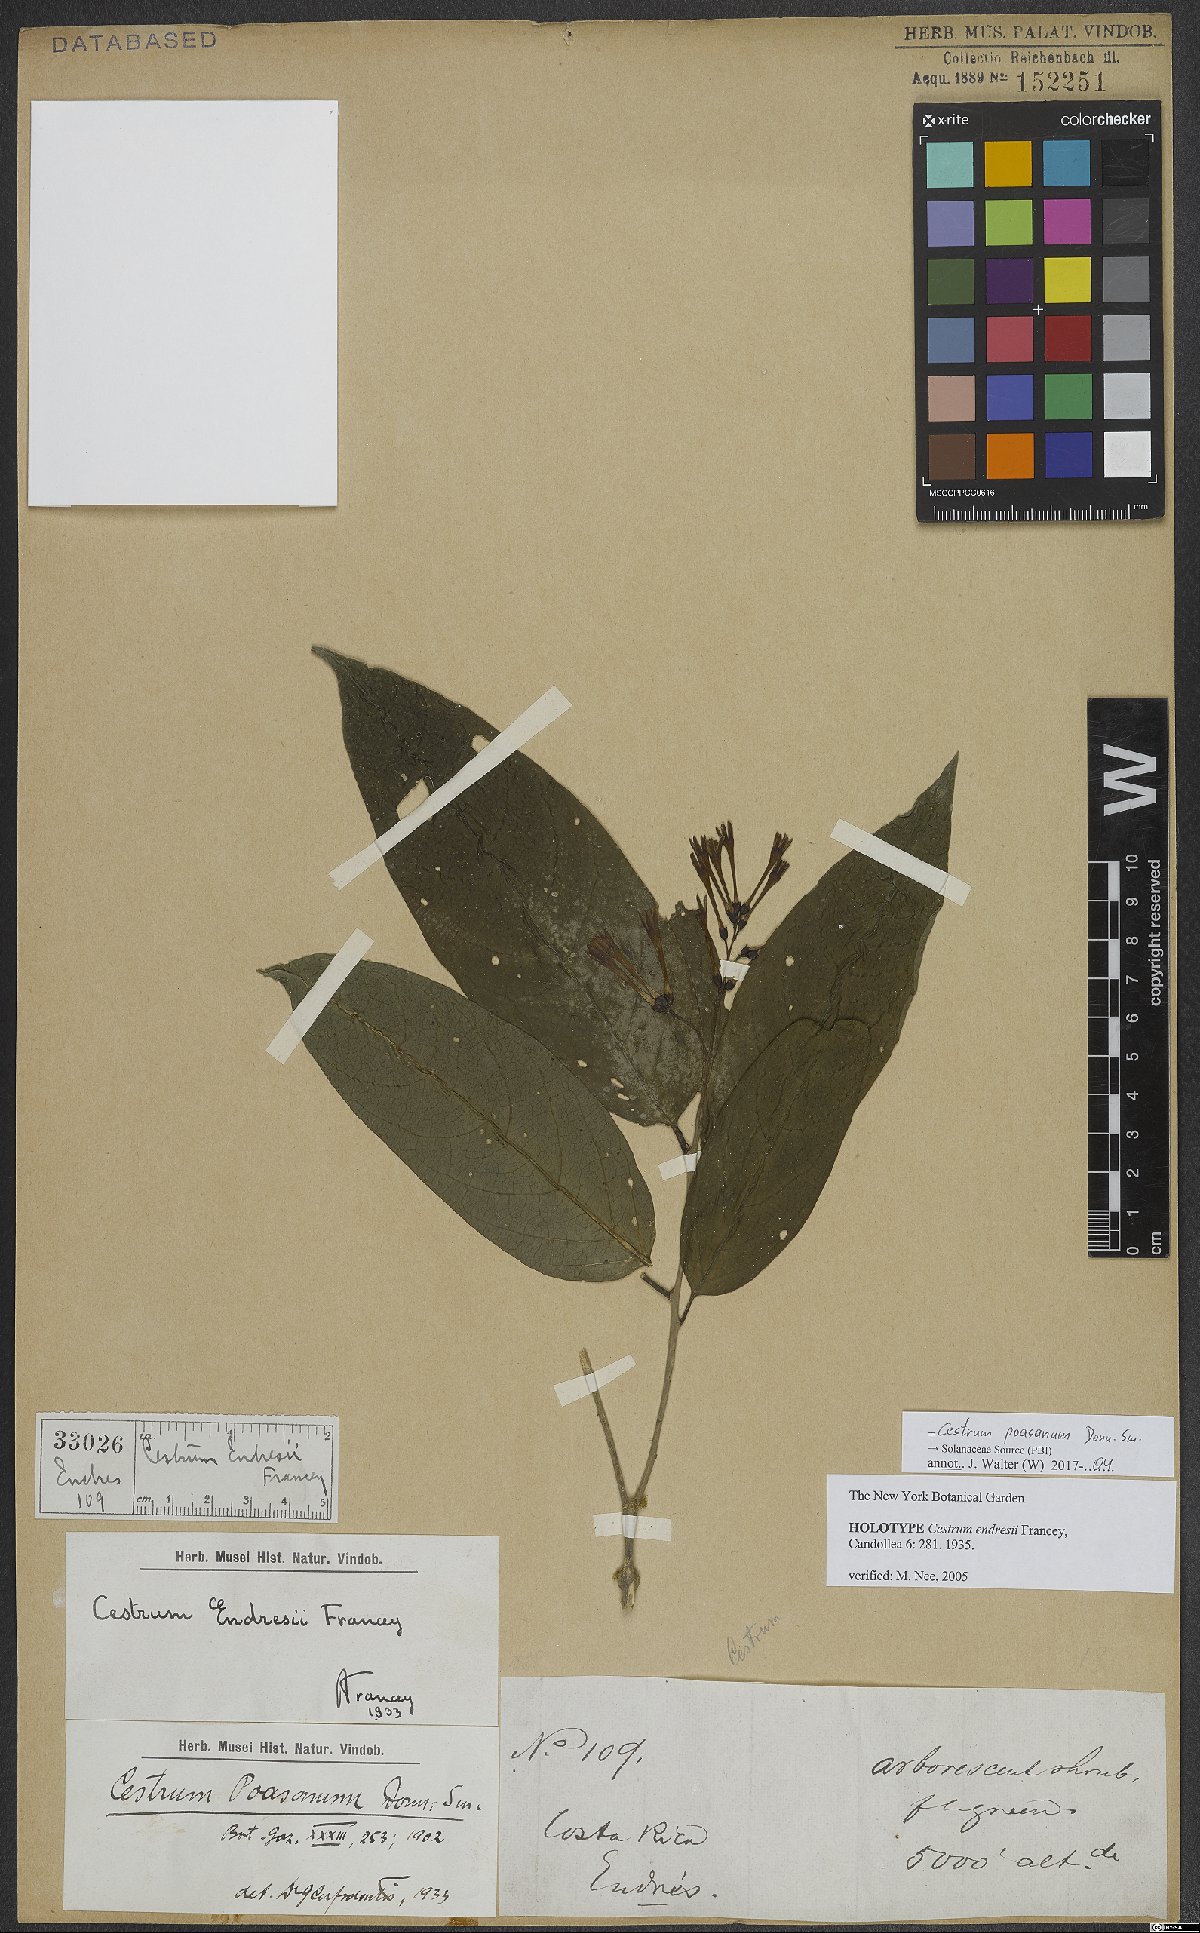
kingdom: Plantae
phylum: Tracheophyta
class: Magnoliopsida
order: Solanales
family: Solanaceae
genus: Cestrum
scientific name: Cestrum poasanum
